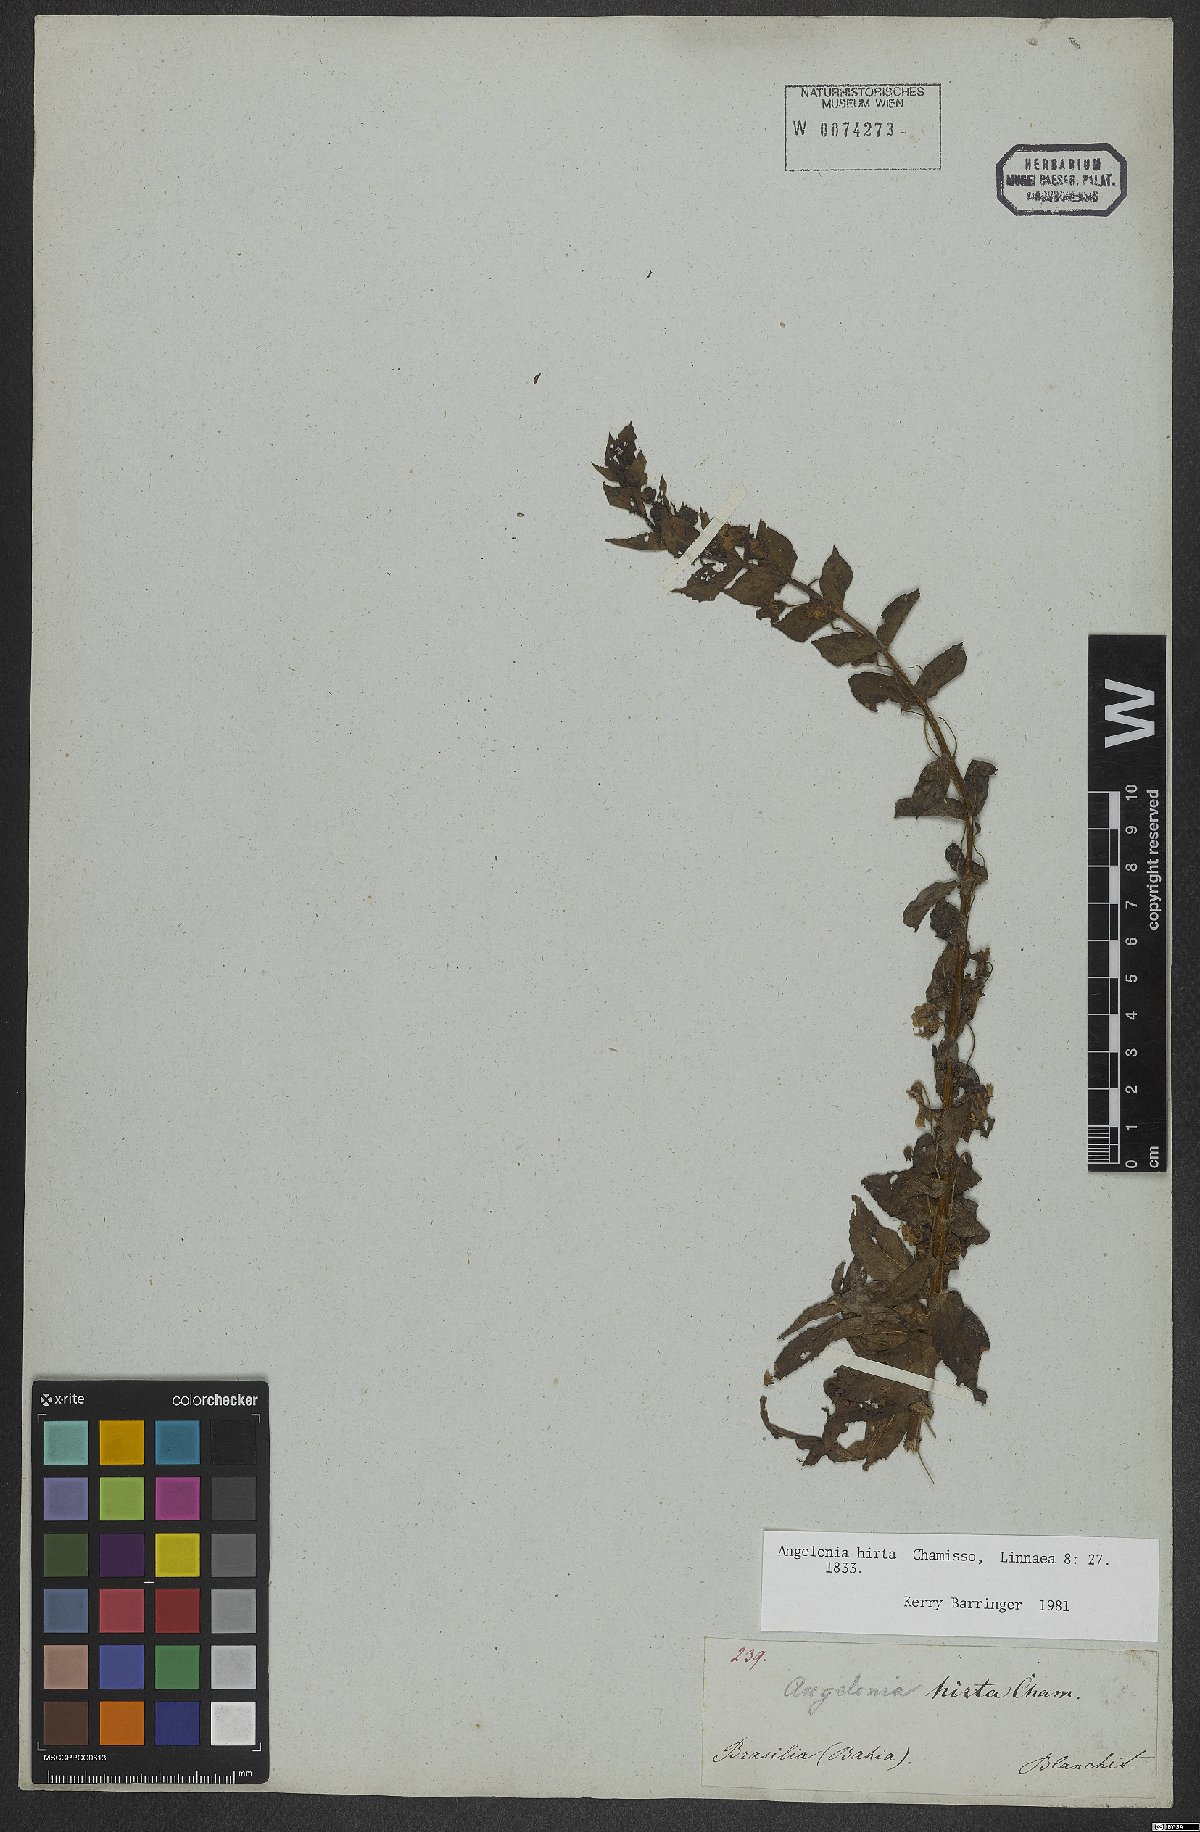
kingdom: Plantae
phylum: Tracheophyta
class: Magnoliopsida
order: Lamiales
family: Plantaginaceae
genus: Angelonia
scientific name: Angelonia salicariifolia
